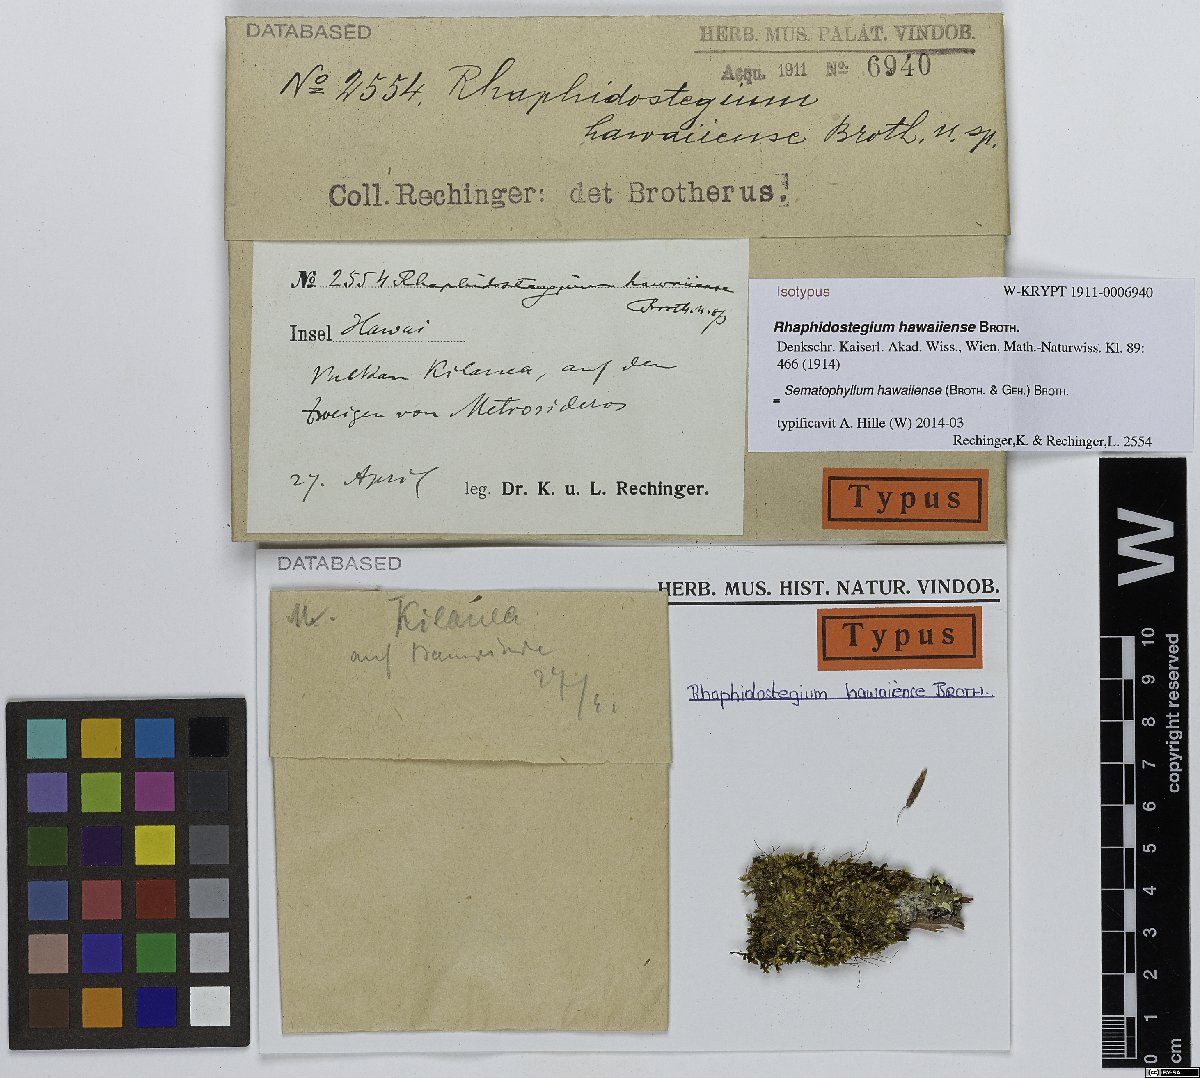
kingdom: Plantae
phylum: Bryophyta
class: Bryopsida
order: Hypnales
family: Sematophyllaceae
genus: Sematophyllum
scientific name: Sematophyllum hawaiiense
